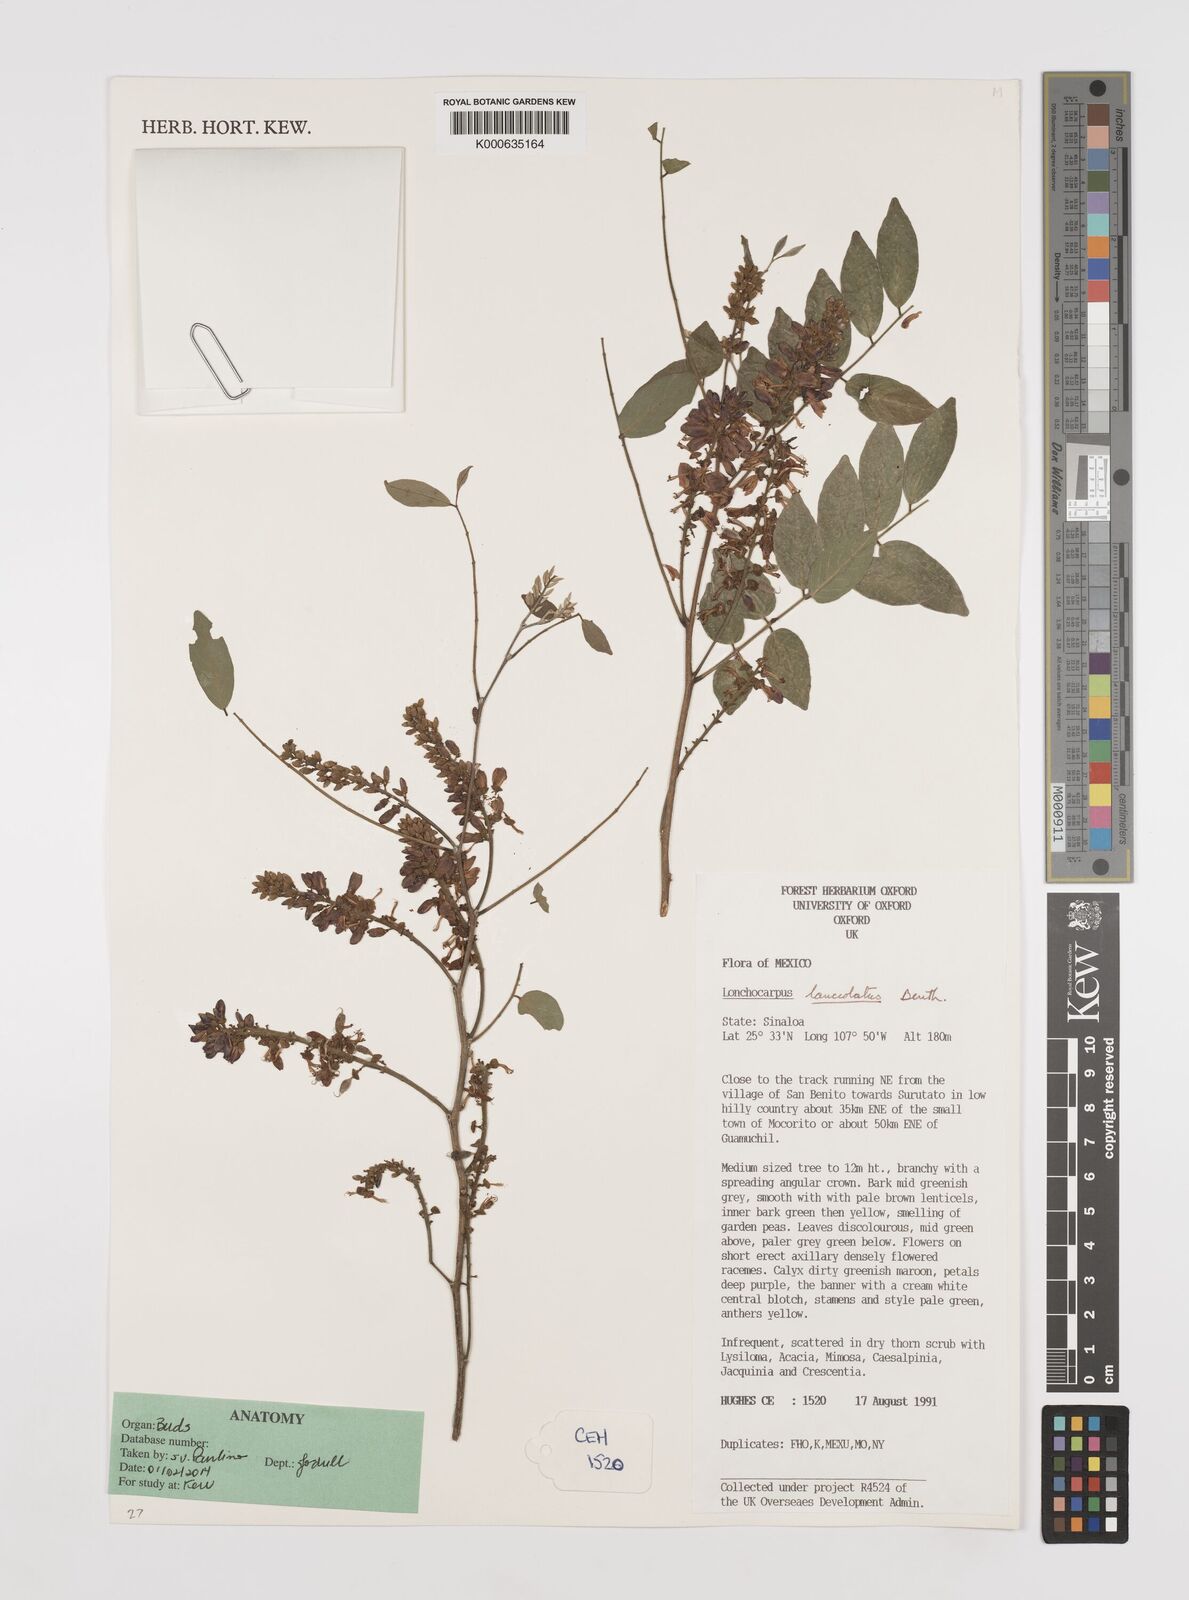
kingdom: Plantae
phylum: Tracheophyta
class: Magnoliopsida
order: Fabales
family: Fabaceae
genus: Lonchocarpus
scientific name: Lonchocarpus lanceolatus
